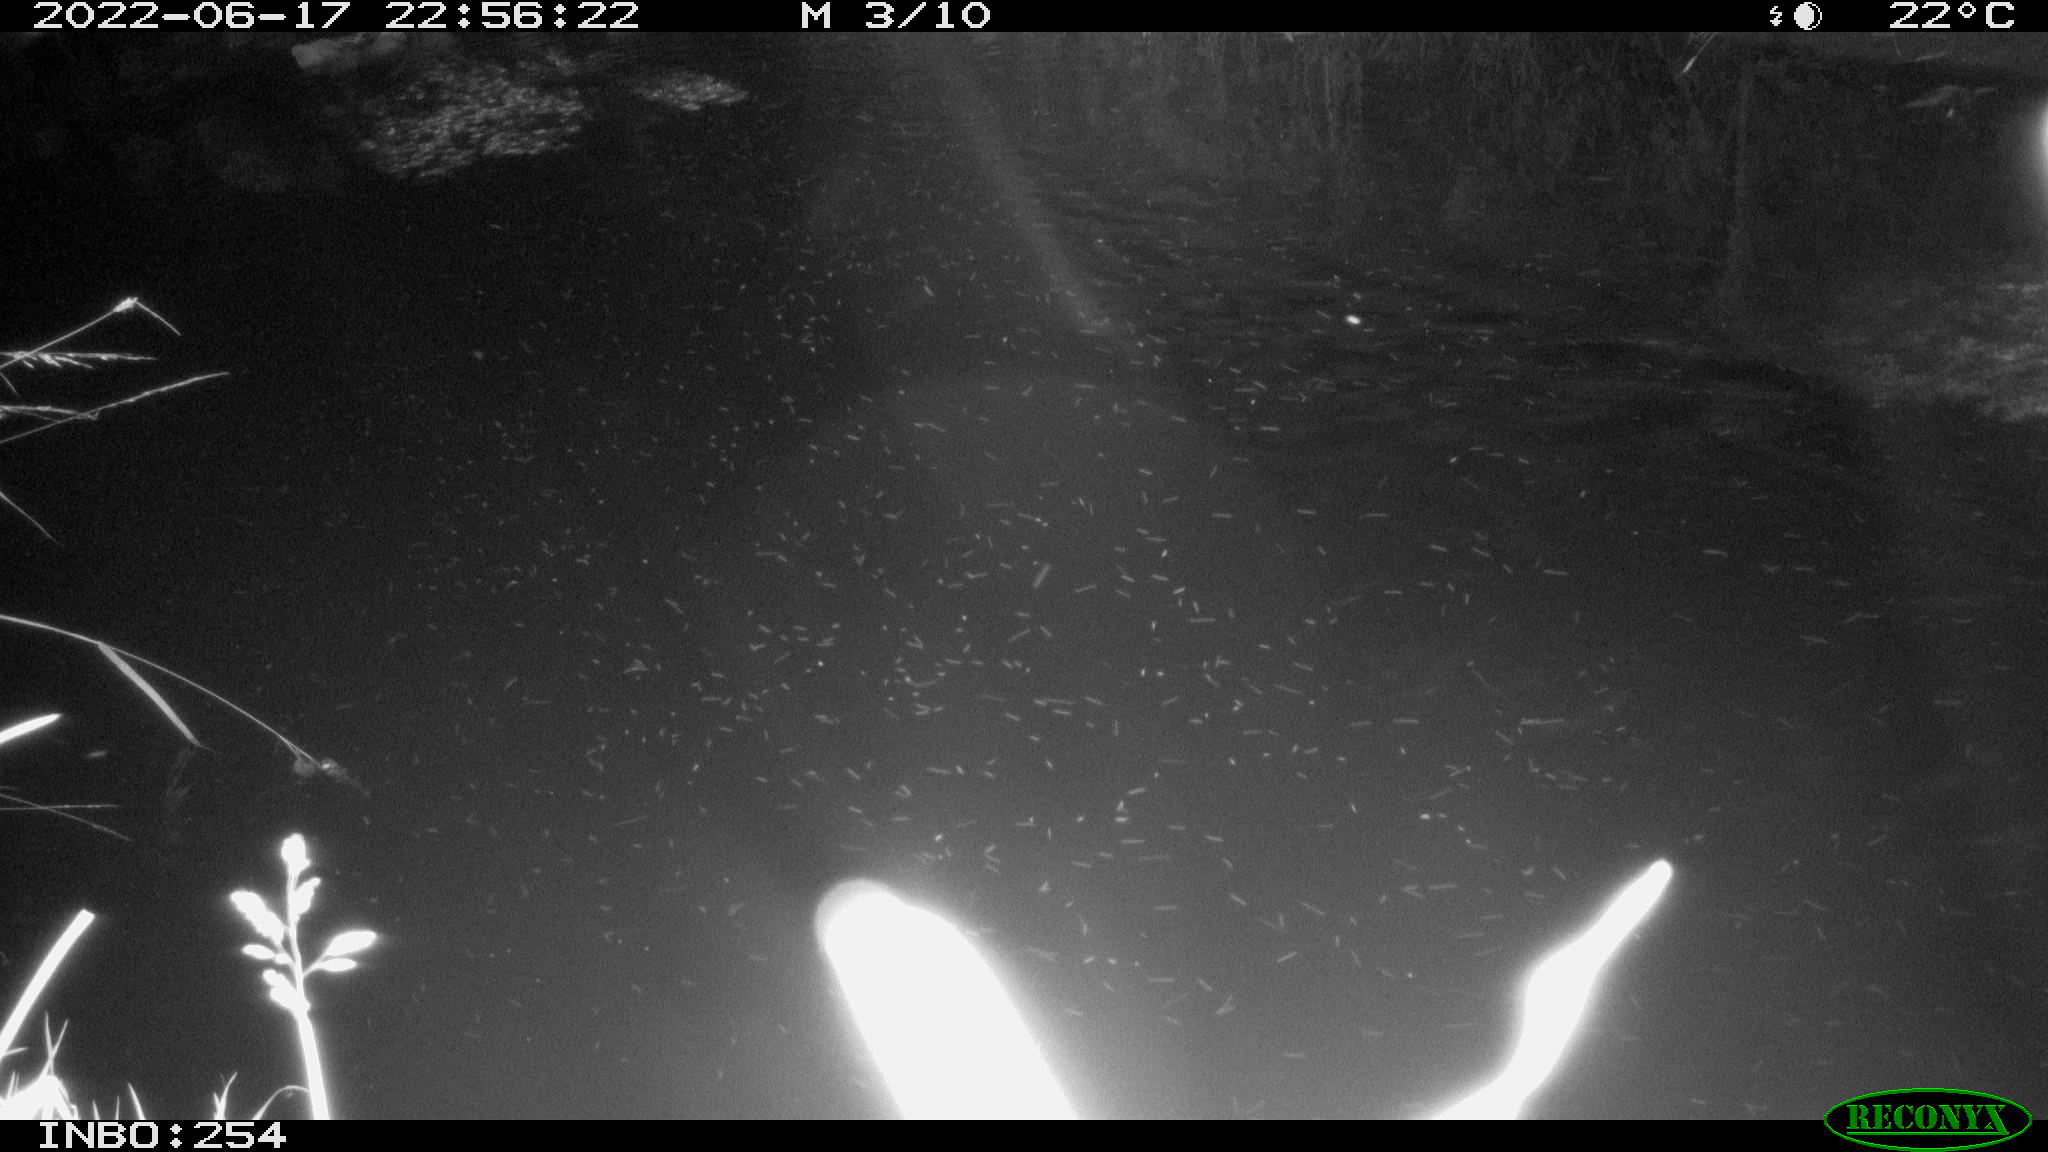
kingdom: Animalia
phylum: Chordata
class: Aves
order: Anseriformes
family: Anatidae
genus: Anas
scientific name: Anas platyrhynchos
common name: Mallard
